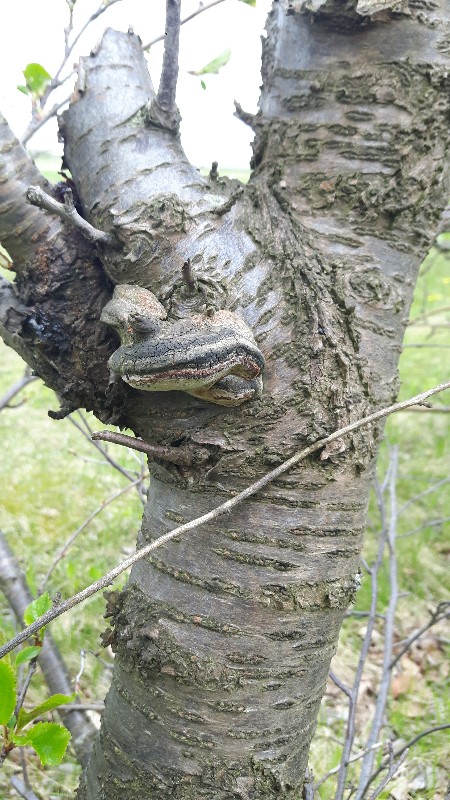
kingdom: Fungi
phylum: Basidiomycota
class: Agaricomycetes
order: Hymenochaetales
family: Hymenochaetaceae
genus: Phellinus
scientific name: Phellinus pomaceus
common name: blomme-ildporesvamp
